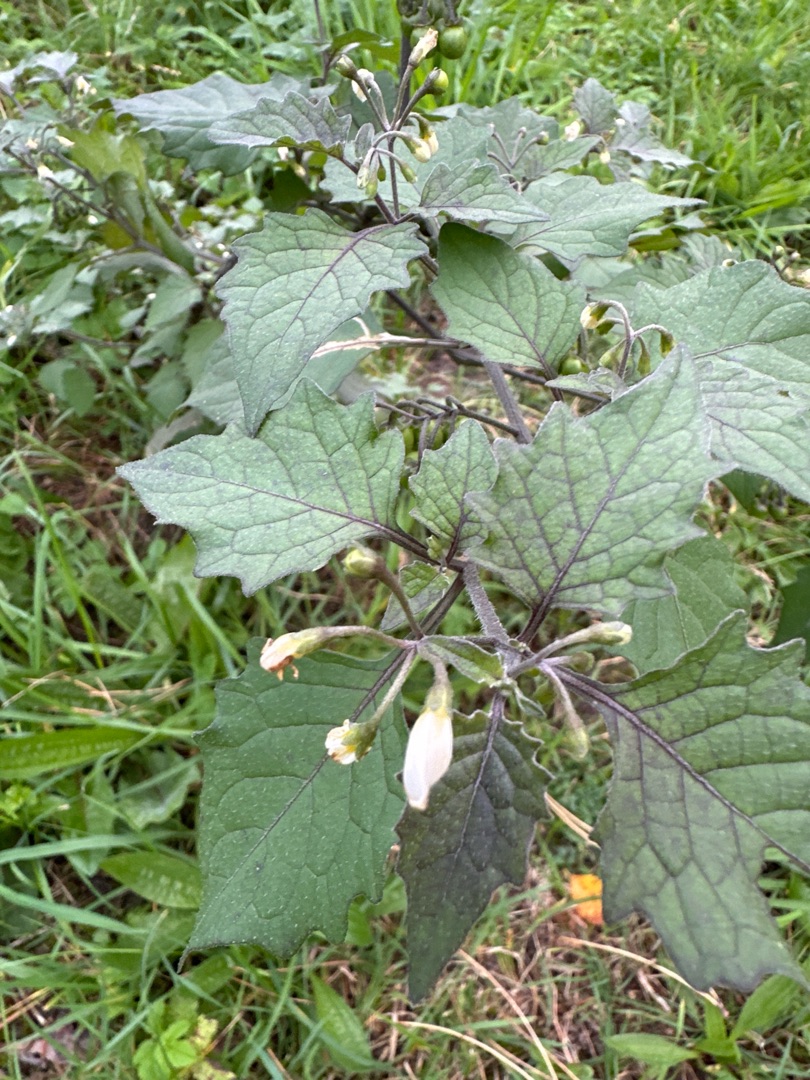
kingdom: Plantae
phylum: Tracheophyta
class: Magnoliopsida
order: Solanales
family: Solanaceae
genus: Solanum
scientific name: Solanum nigrum
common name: Sort natskygge
